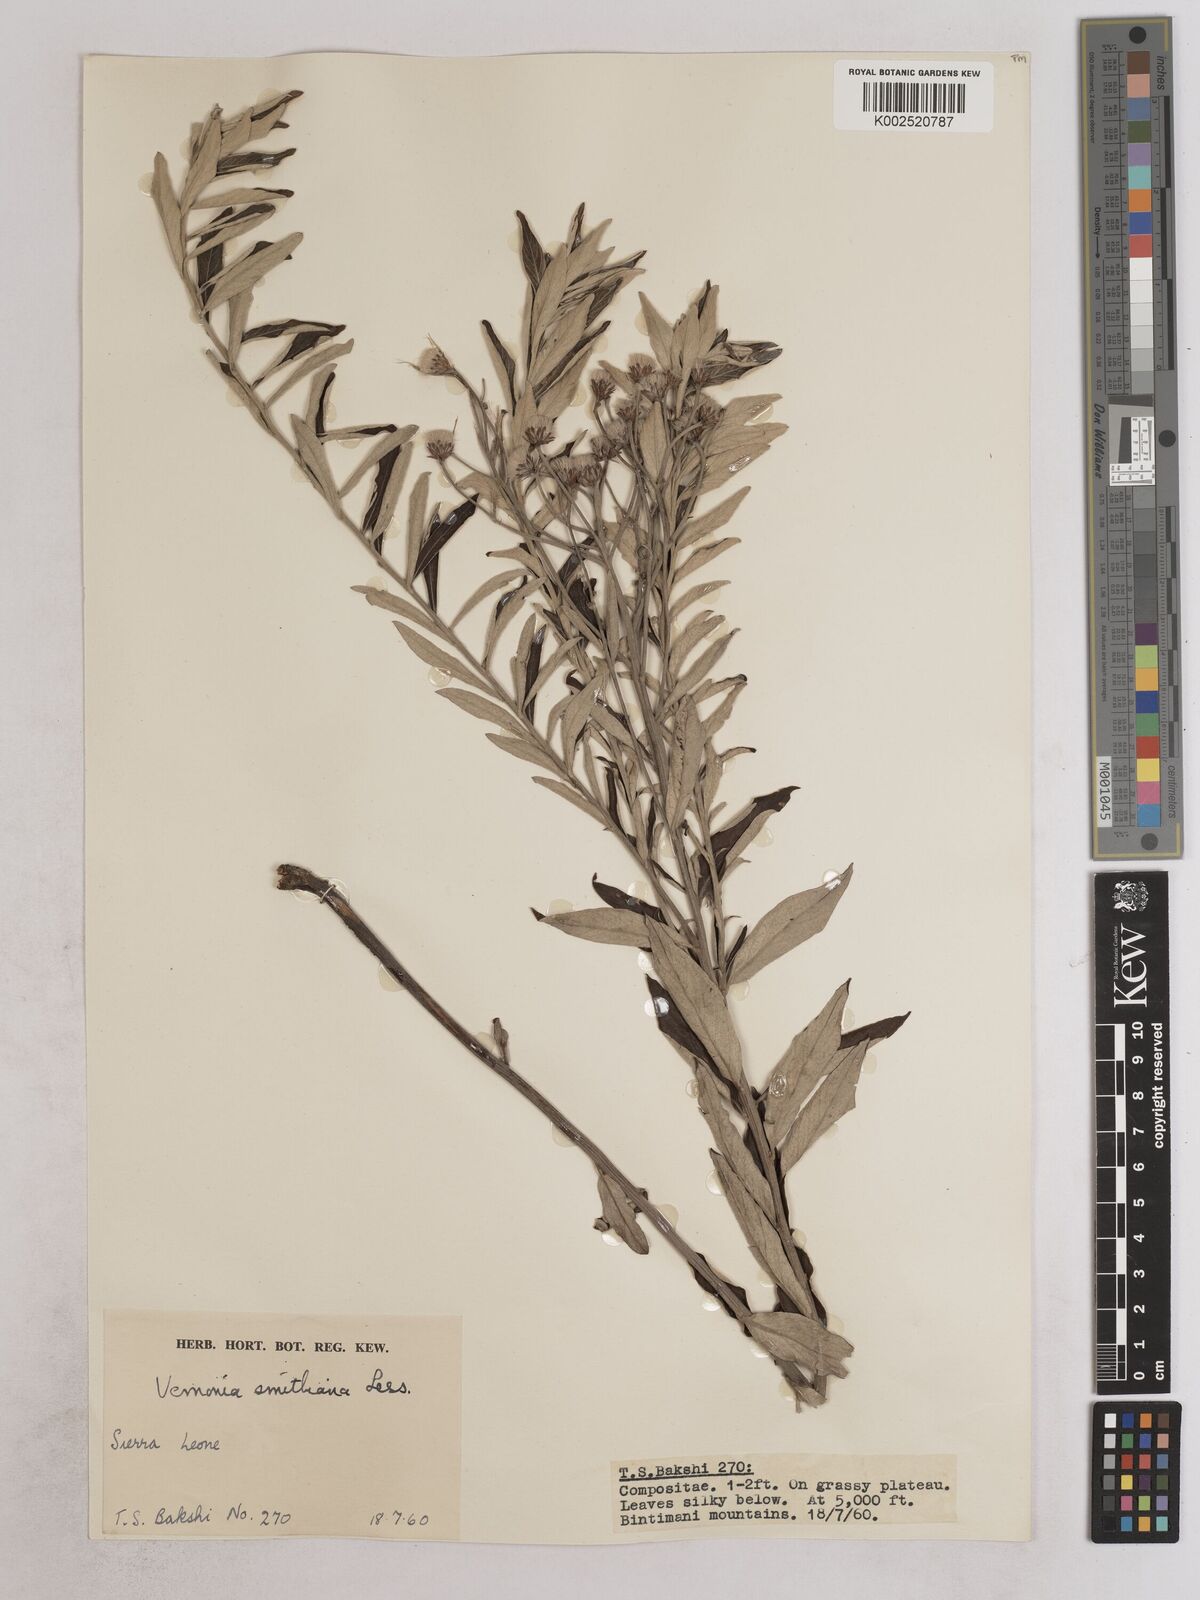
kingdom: Plantae
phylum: Tracheophyta
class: Magnoliopsida
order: Asterales
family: Asteraceae
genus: Hilliardiella
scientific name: Hilliardiella smithiana
